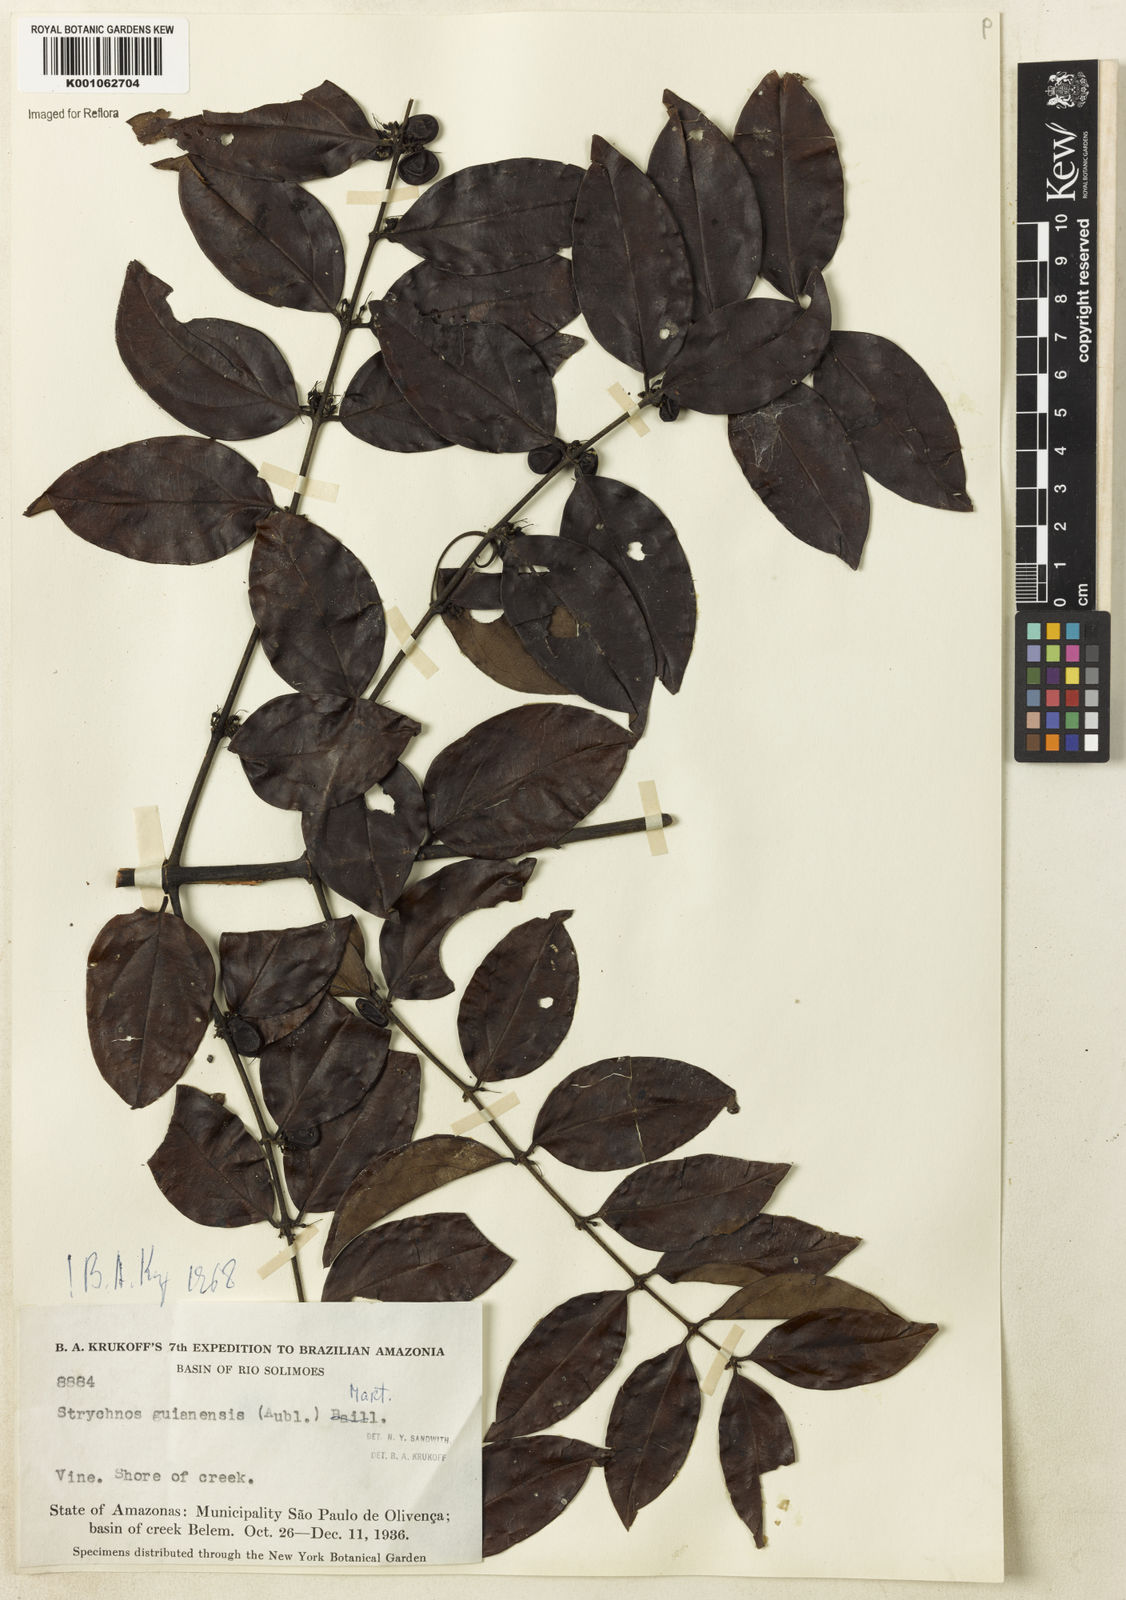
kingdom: Plantae
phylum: Tracheophyta
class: Magnoliopsida
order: Gentianales
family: Loganiaceae
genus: Strychnos
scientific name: Strychnos guianensis
